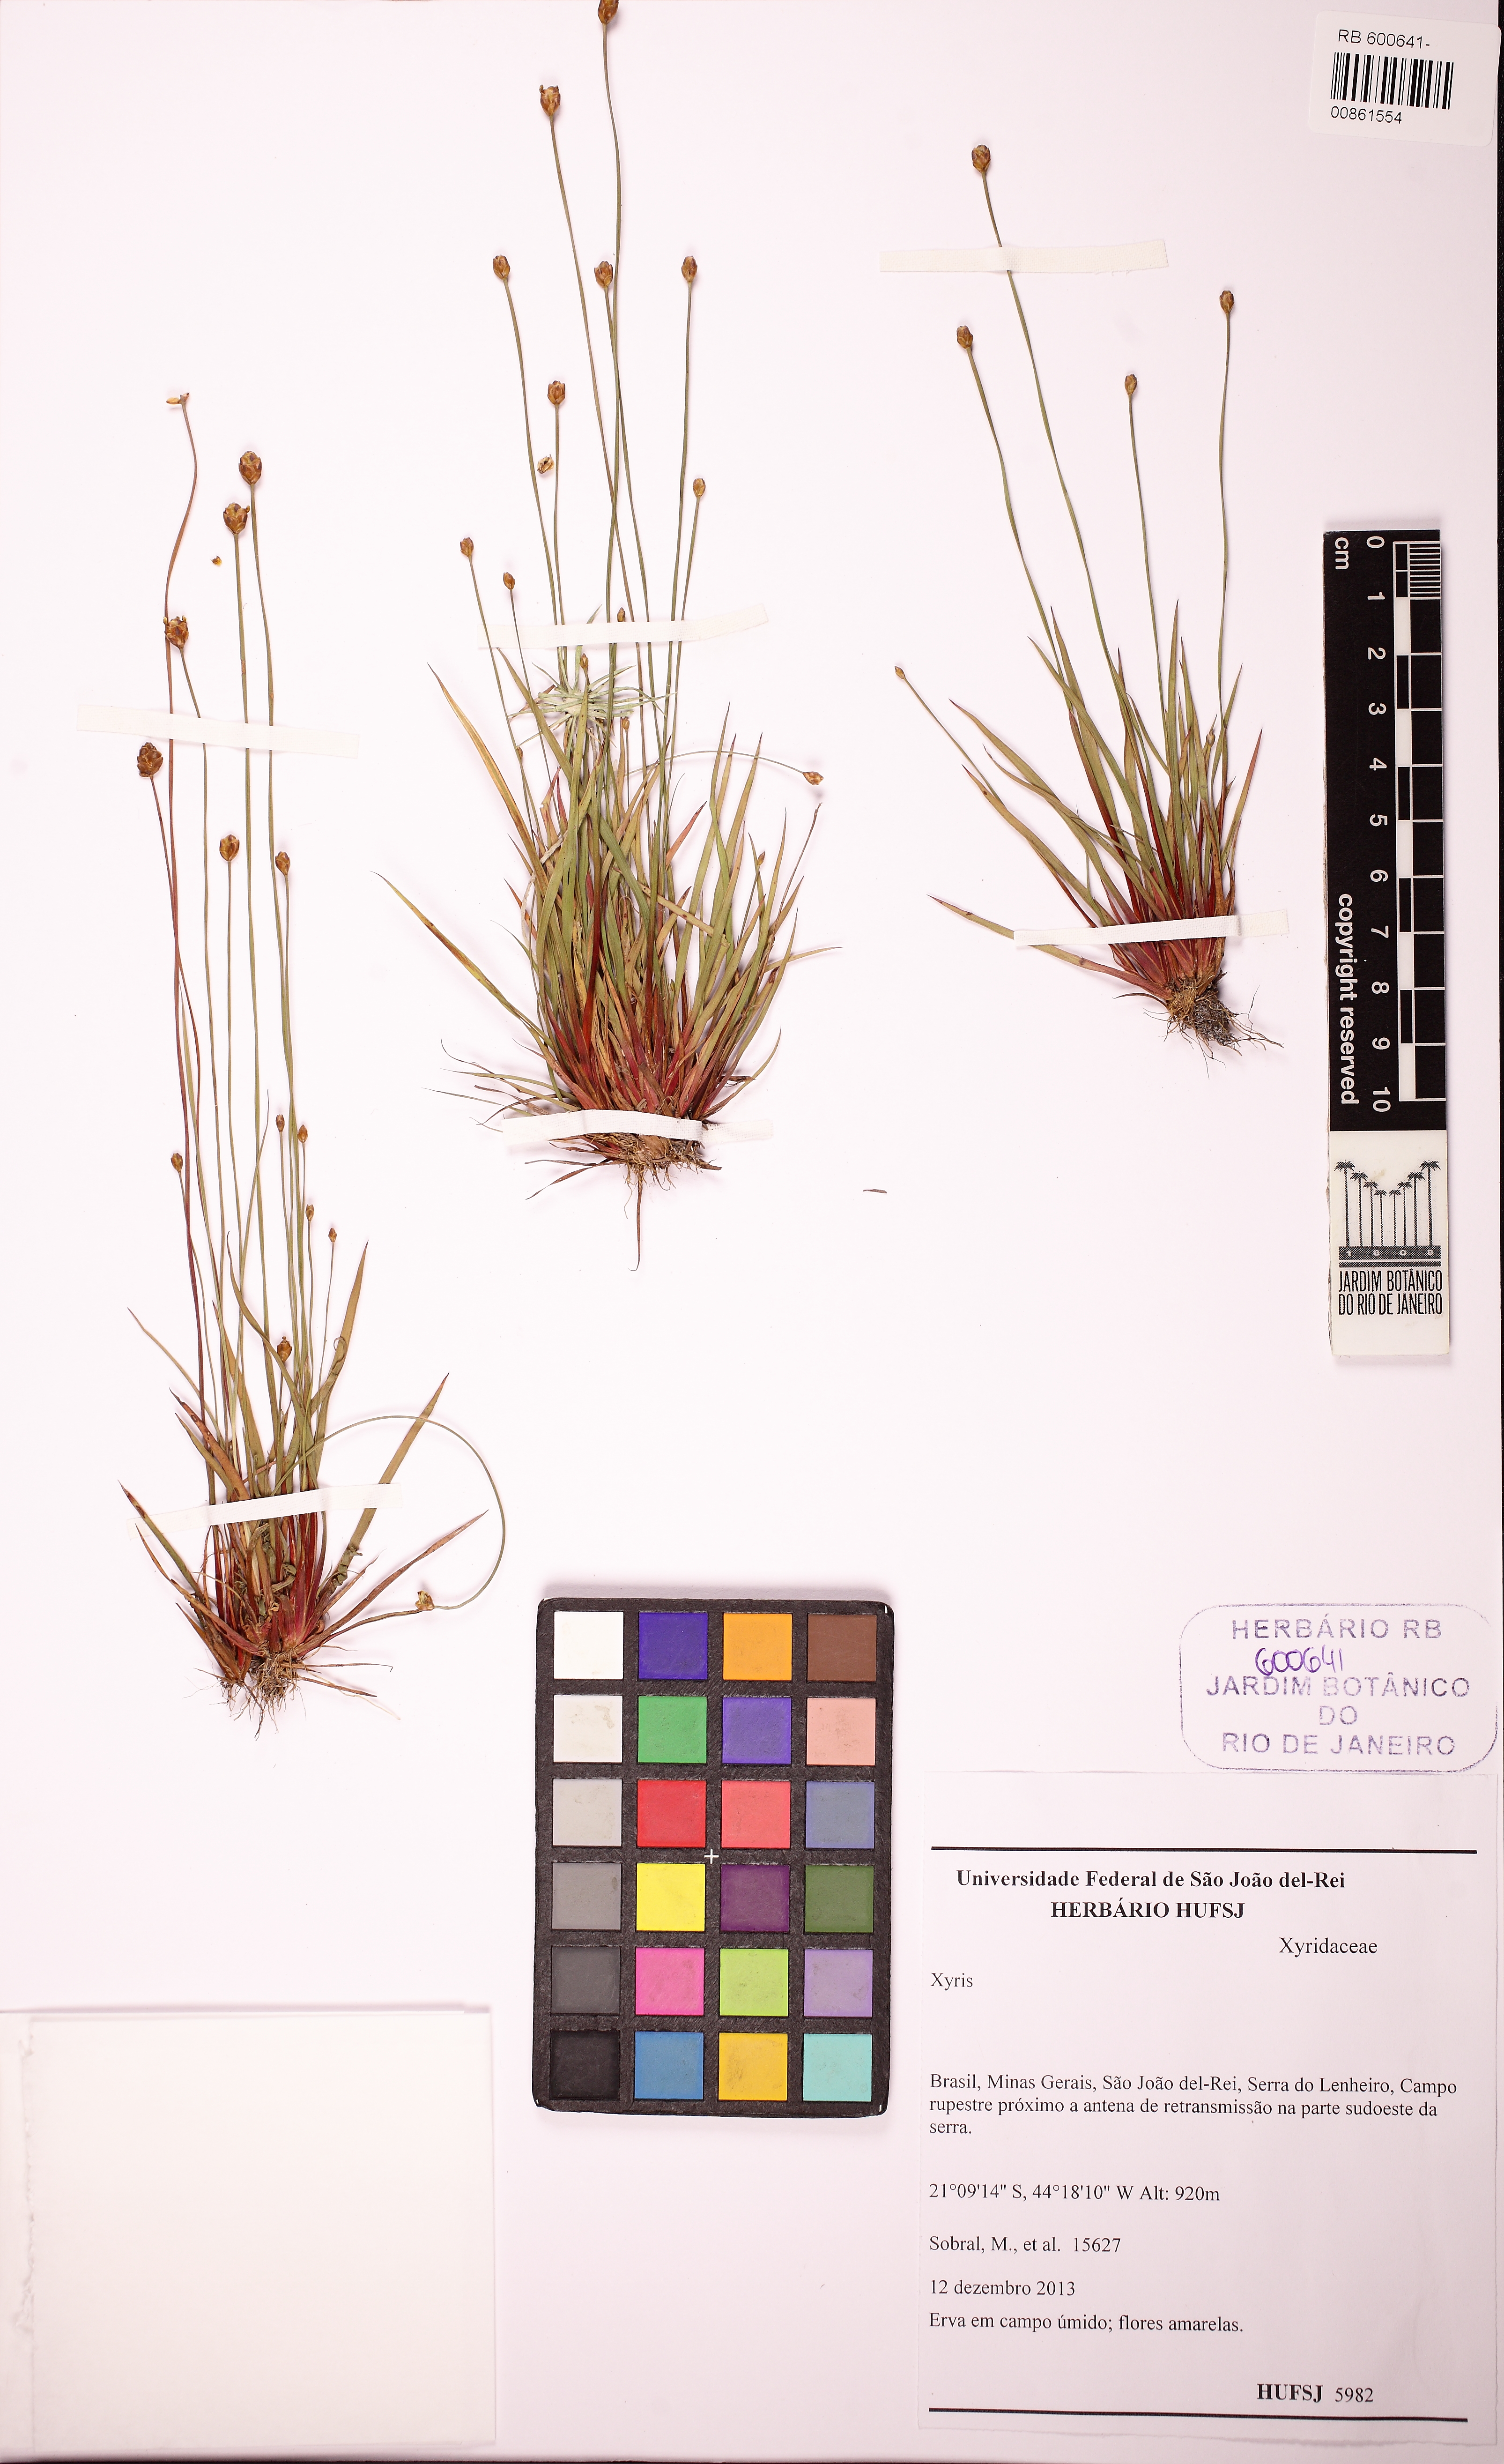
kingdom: Plantae
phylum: Tracheophyta
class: Liliopsida
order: Poales
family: Xyridaceae
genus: Xyris
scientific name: Xyris savanensis
